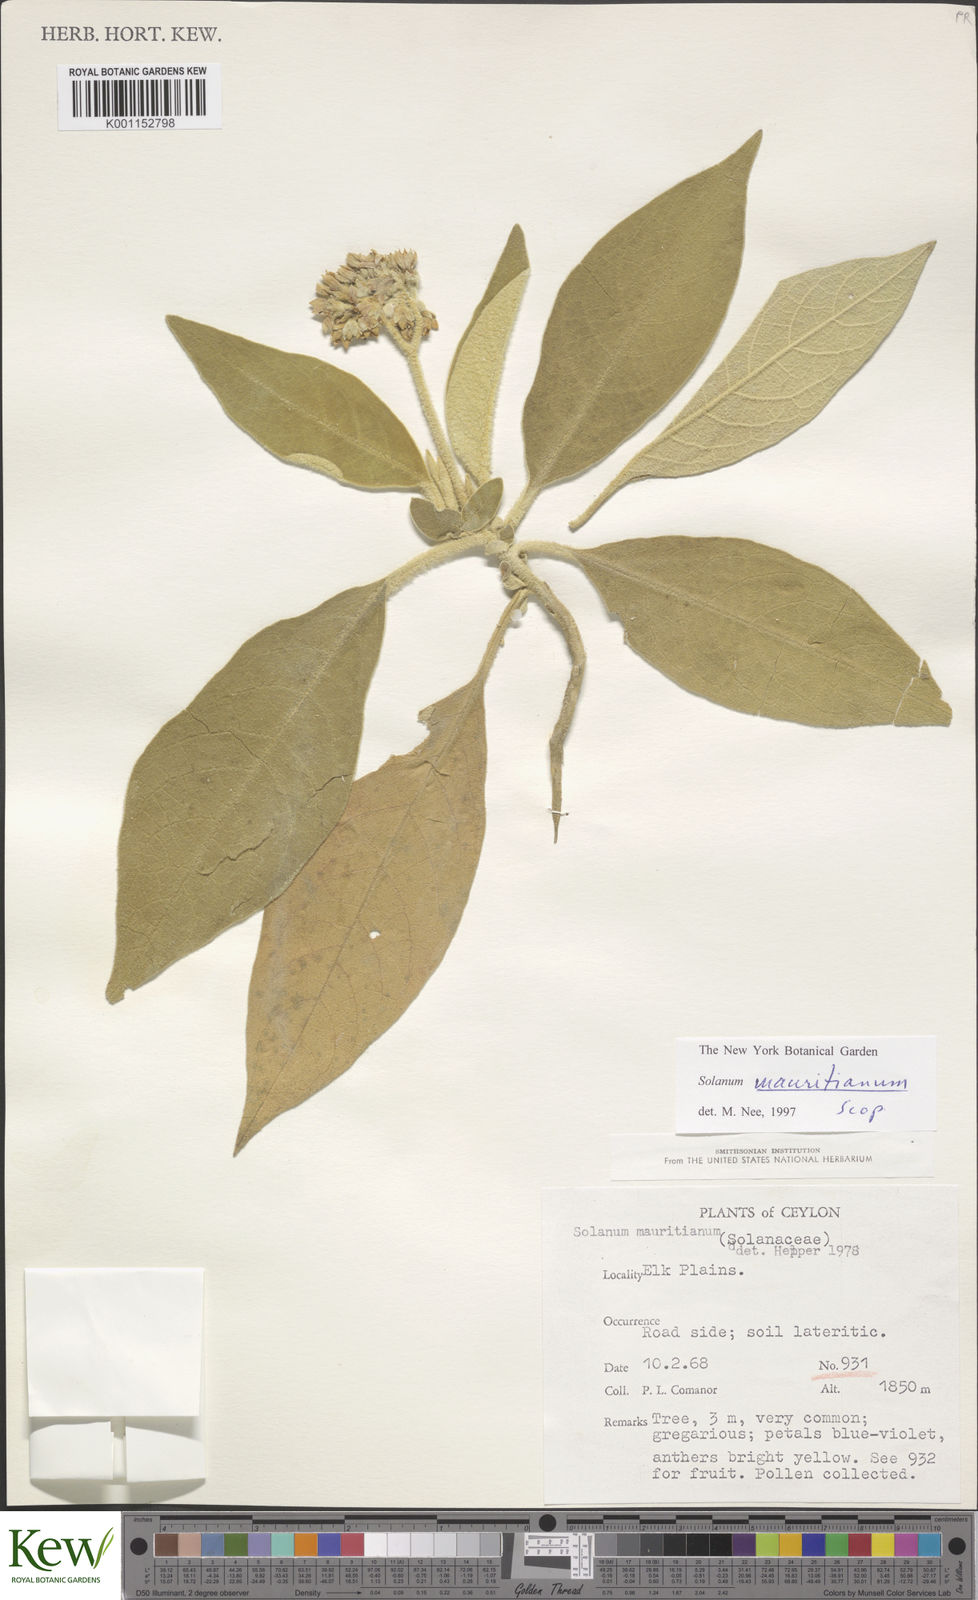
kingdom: Plantae
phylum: Tracheophyta
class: Magnoliopsida
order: Solanales
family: Solanaceae
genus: Solanum
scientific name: Solanum mauritianum
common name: Earleaf nightshade
